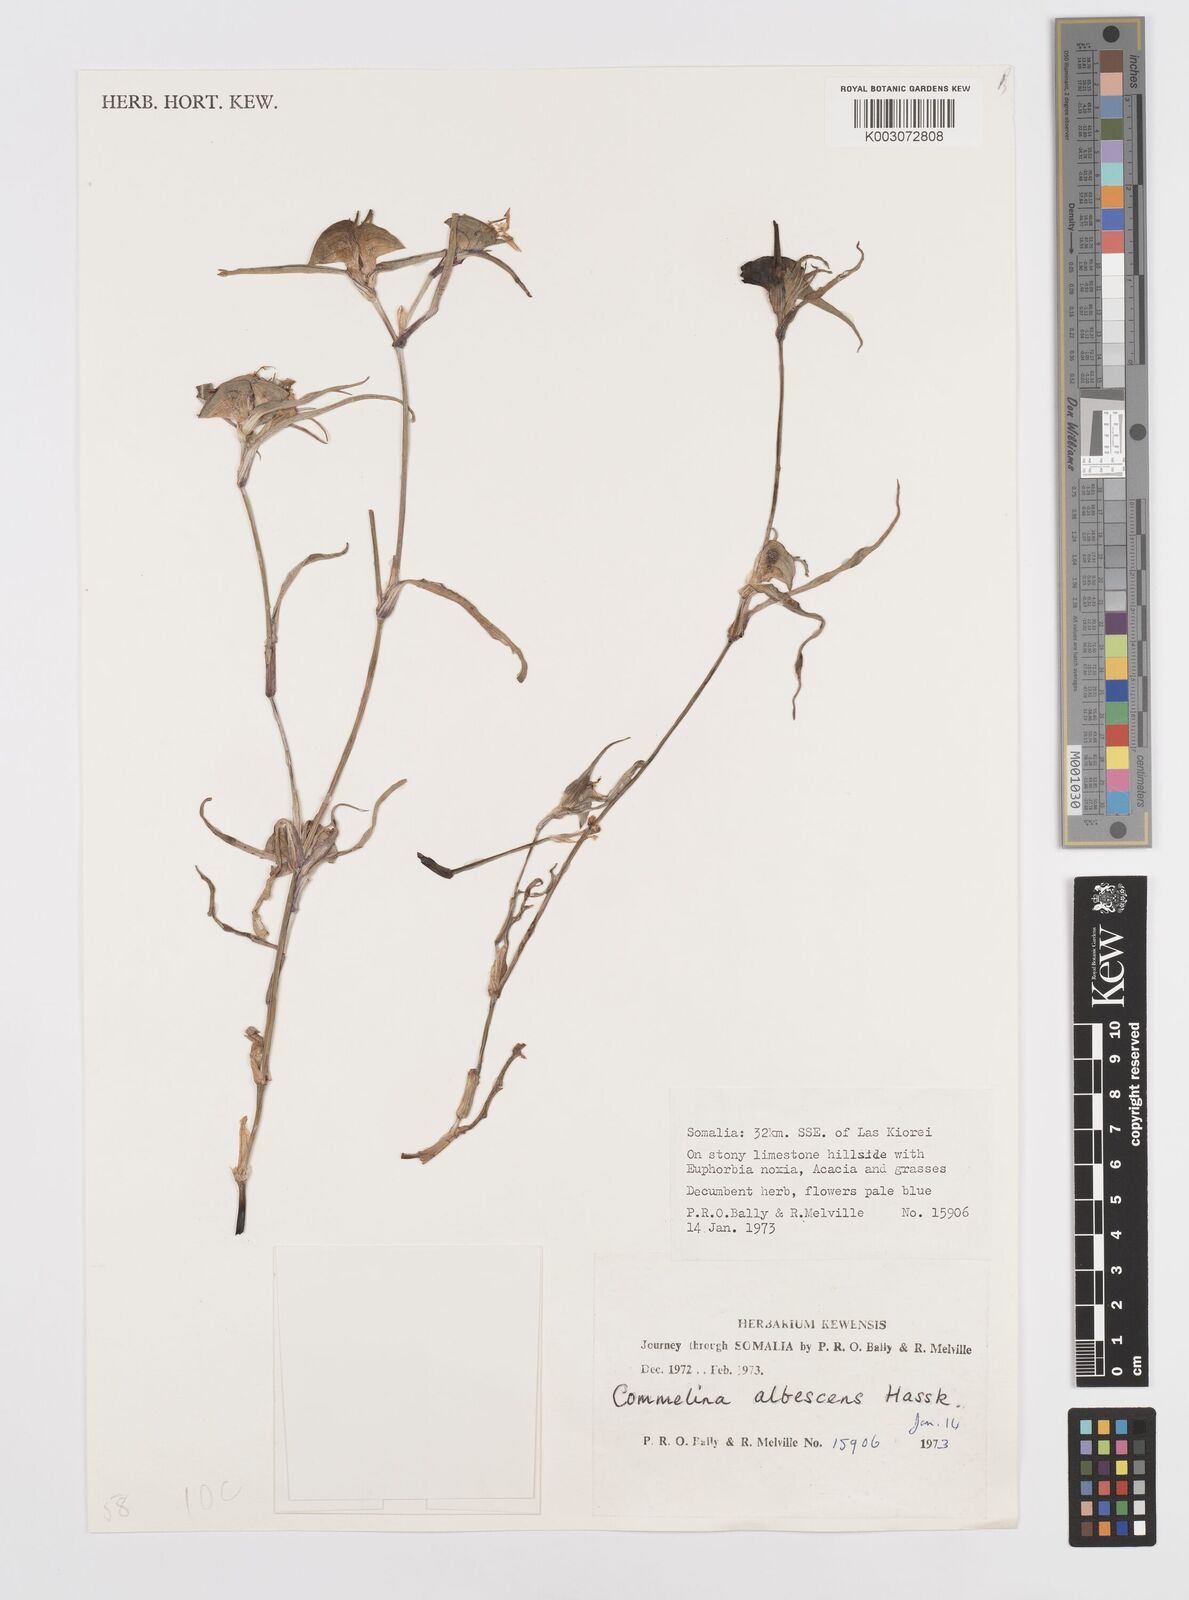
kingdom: Plantae
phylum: Tracheophyta
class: Liliopsida
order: Commelinales
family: Commelinaceae
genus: Commelina
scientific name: Commelina albescens
